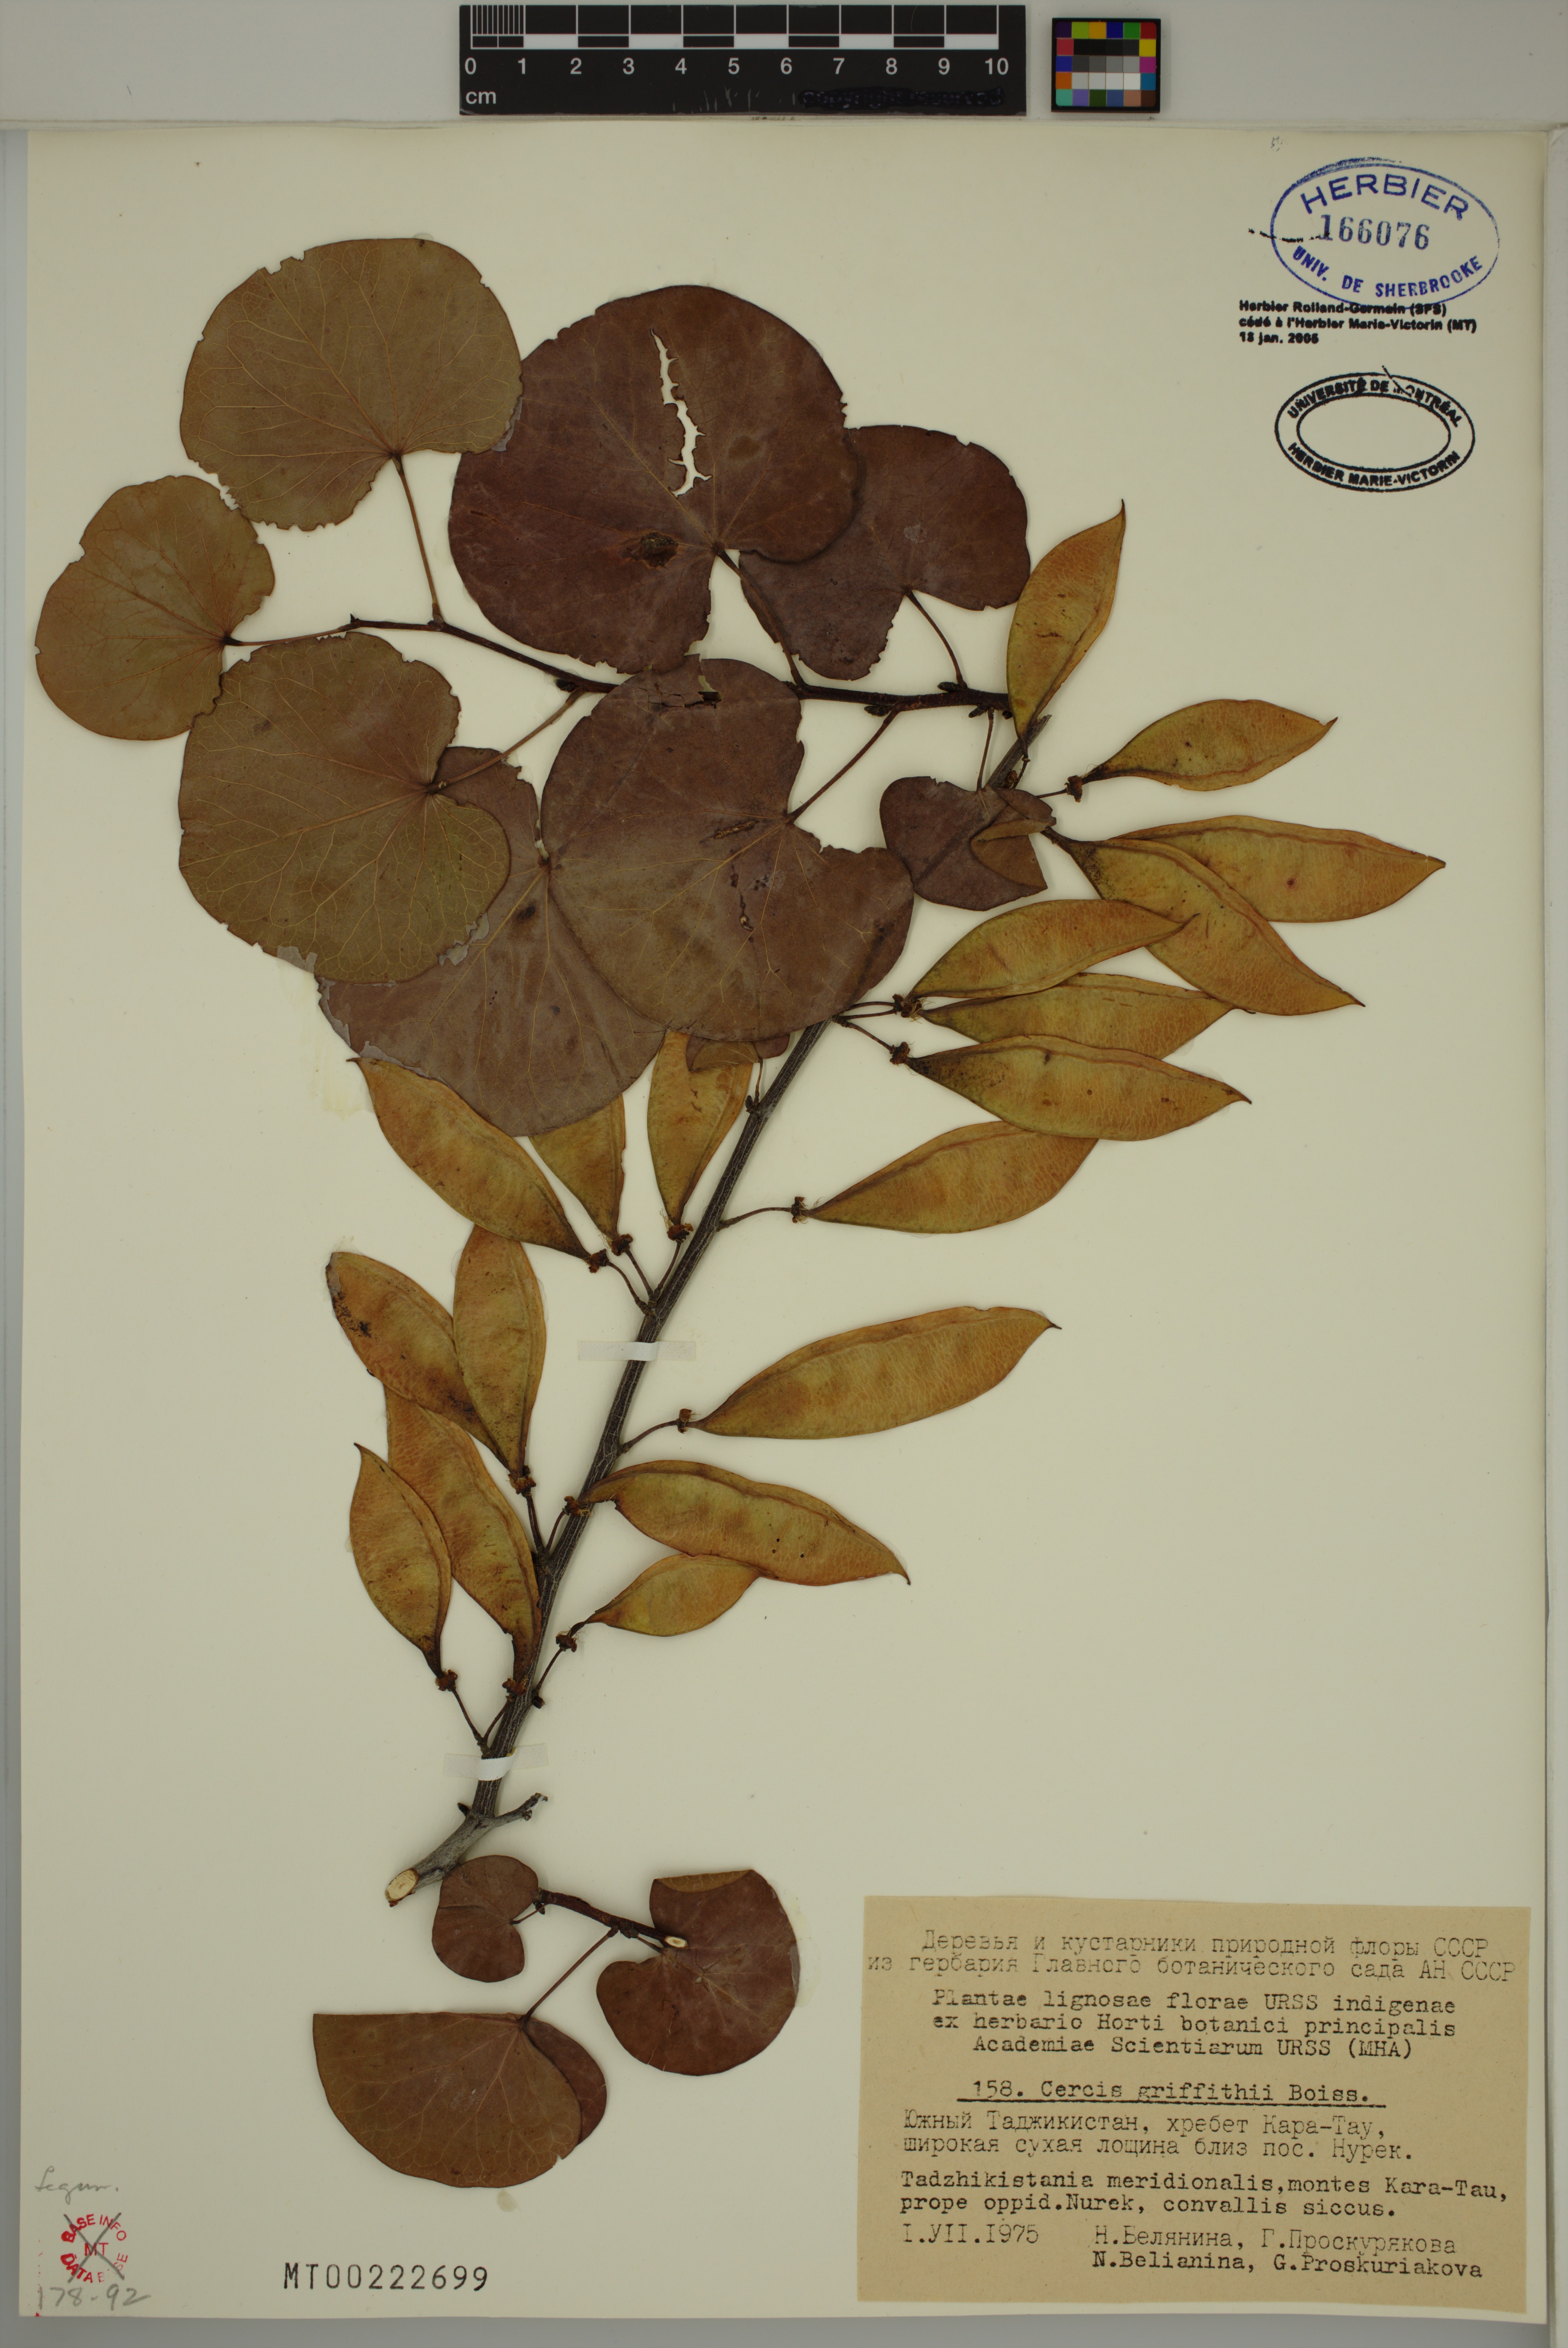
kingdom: Plantae
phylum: Tracheophyta
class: Magnoliopsida
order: Fabales
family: Fabaceae
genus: Cercis
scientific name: Cercis griffithii
